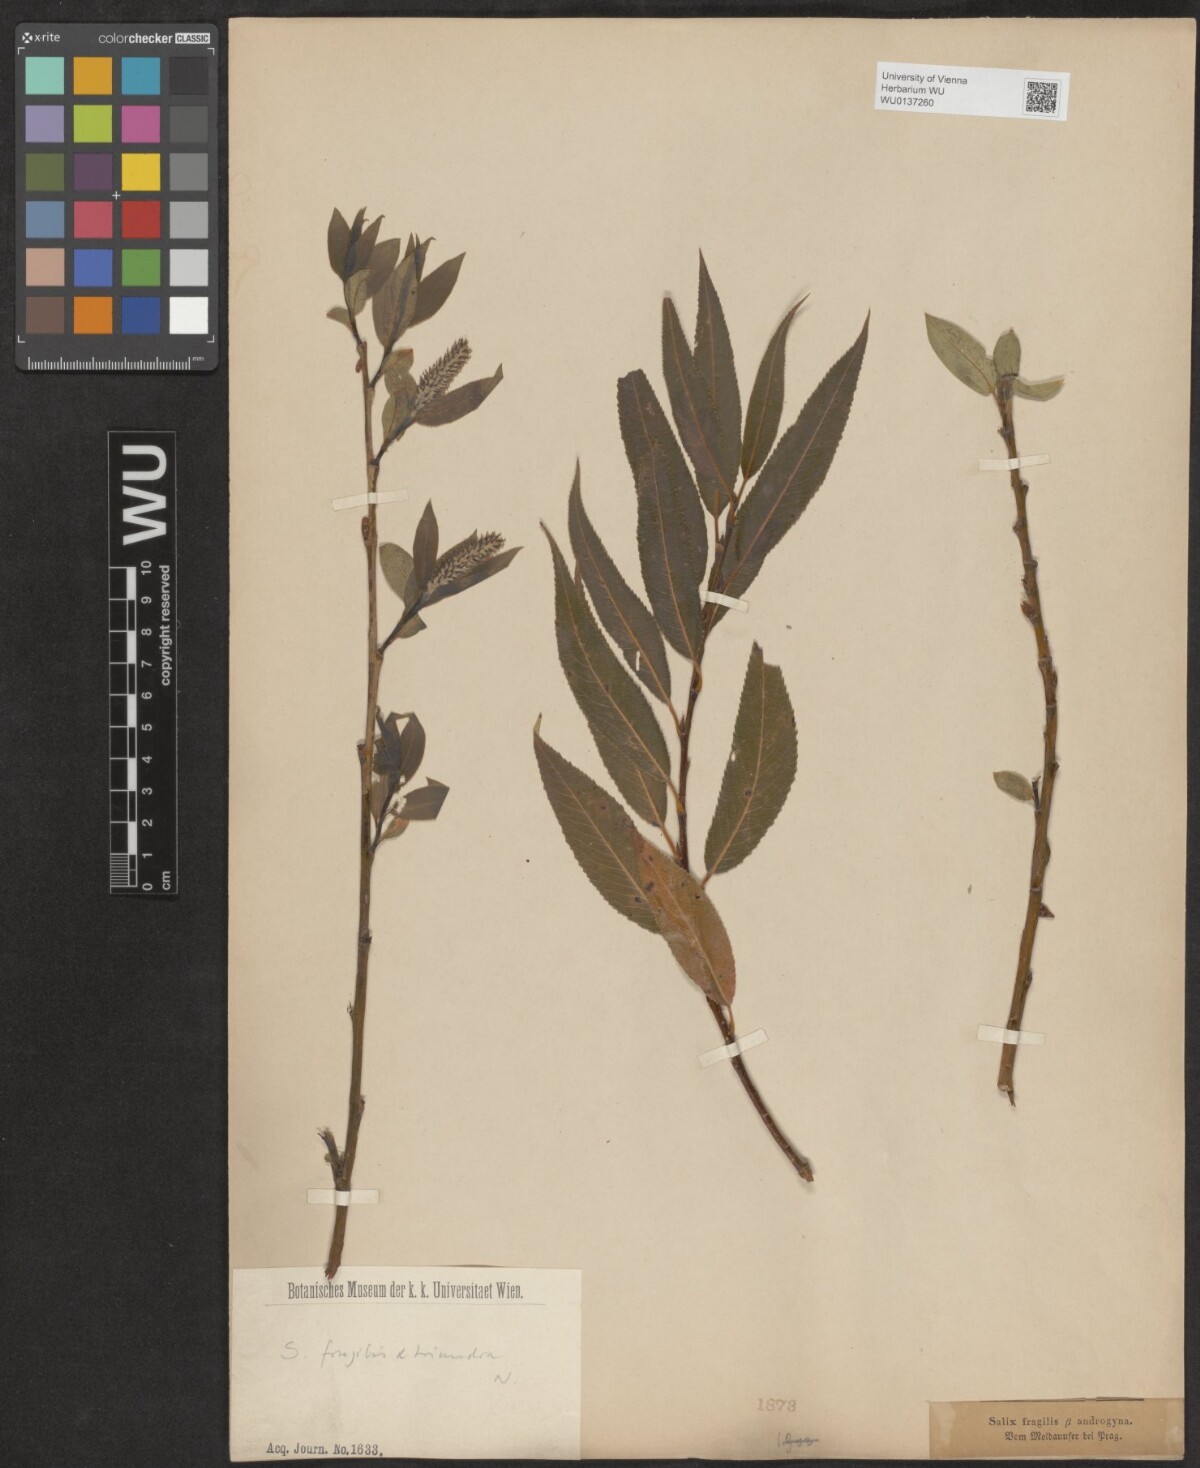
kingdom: Plantae
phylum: Tracheophyta
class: Magnoliopsida
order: Malpighiales
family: Salicaceae
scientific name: Salicaceae
